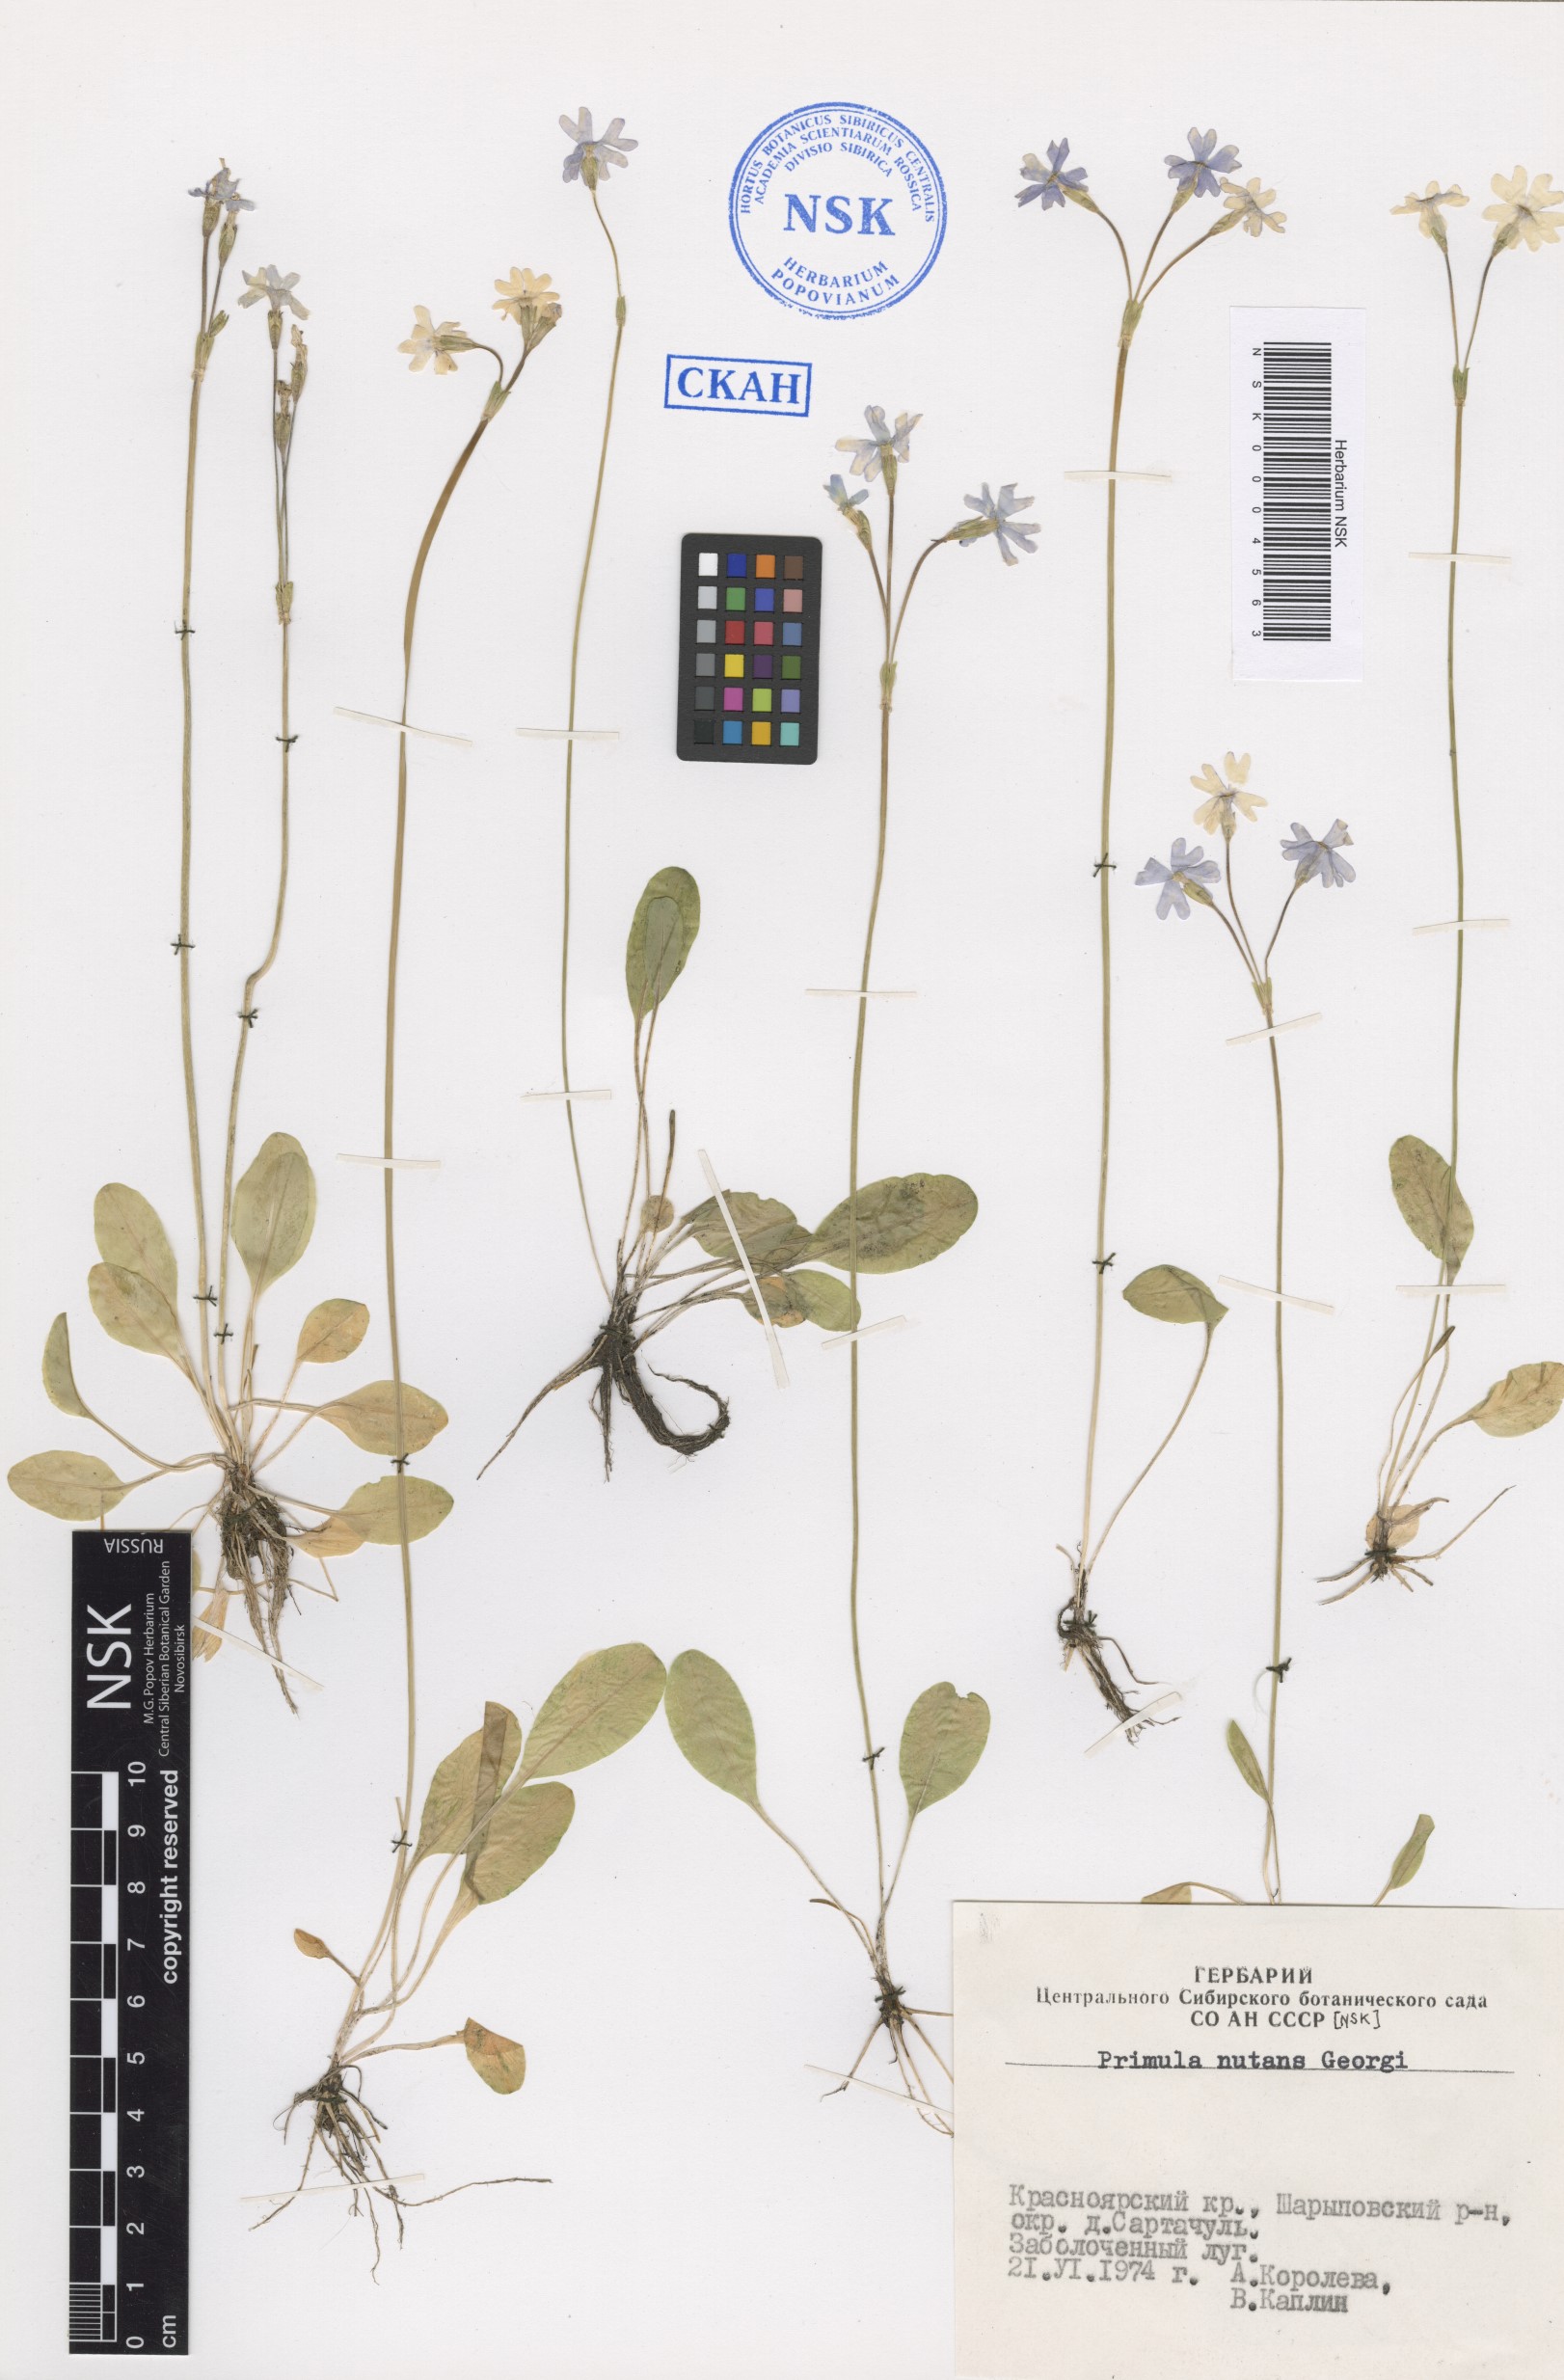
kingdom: Plantae
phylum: Tracheophyta
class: Magnoliopsida
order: Ericales
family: Primulaceae
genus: Primula
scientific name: Primula nutans
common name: Siberian primrose
